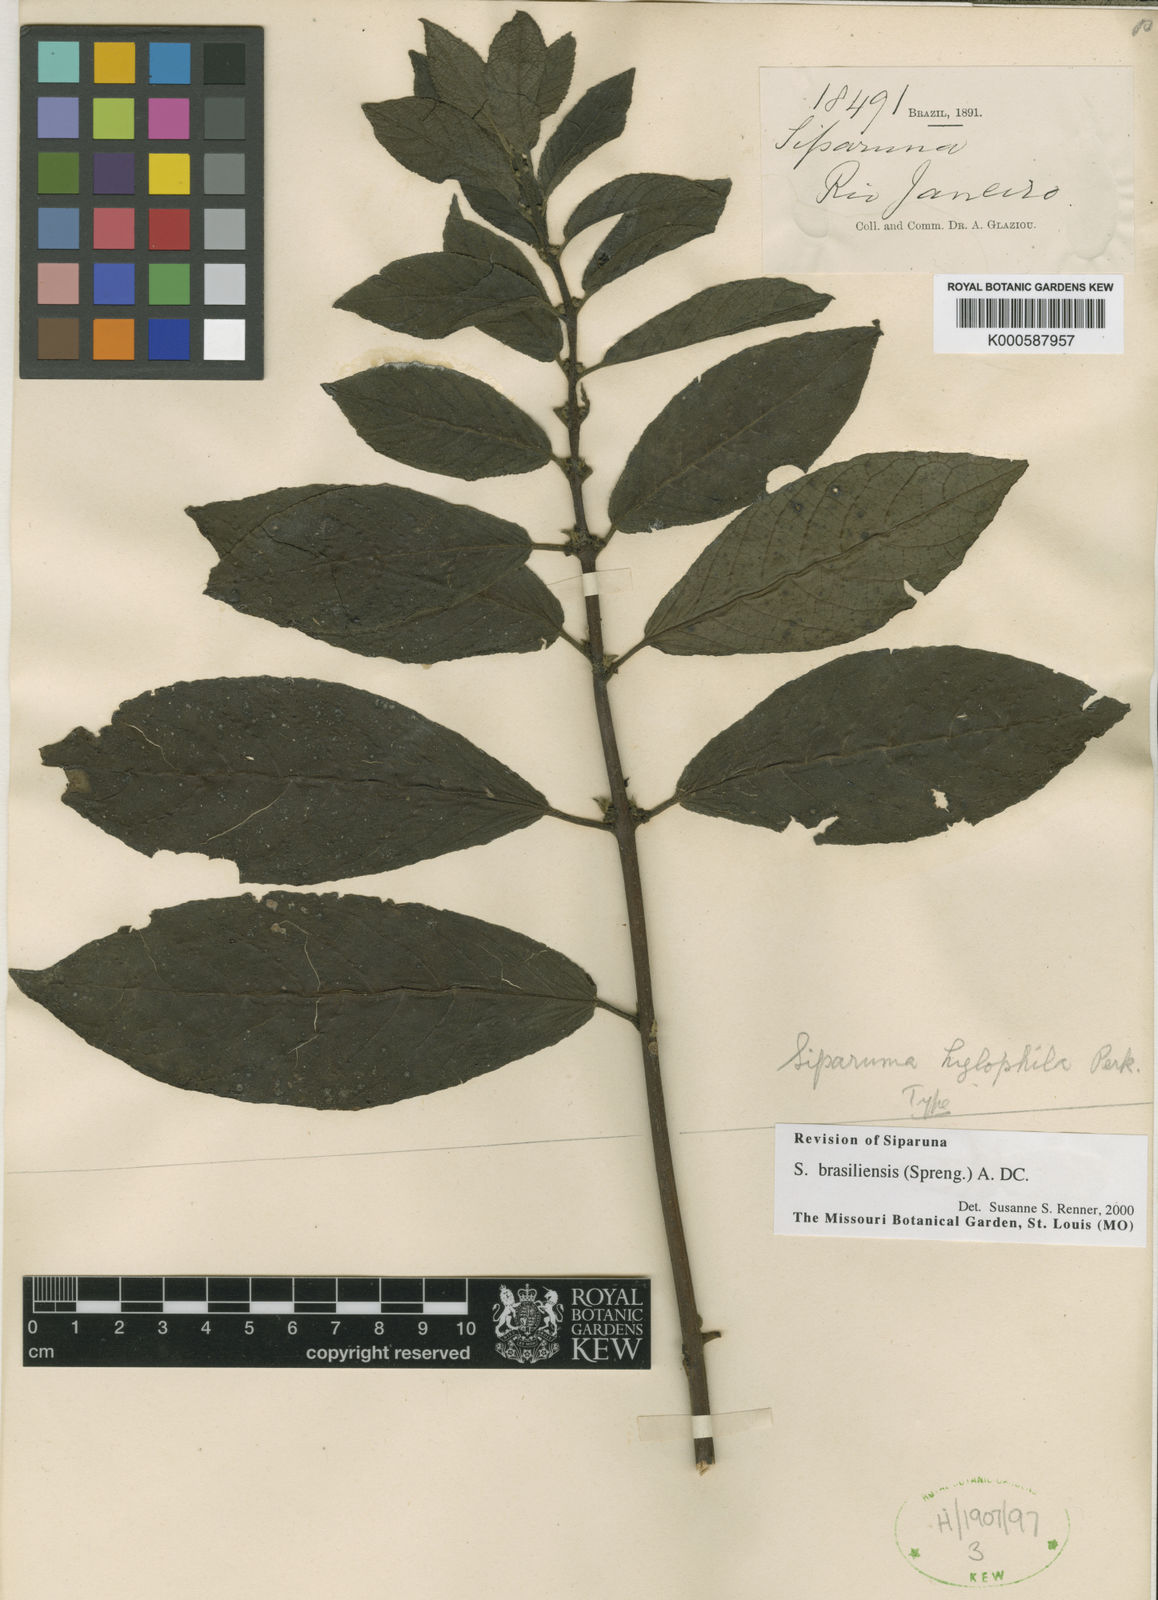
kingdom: Plantae
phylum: Tracheophyta
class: Magnoliopsida
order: Laurales
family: Siparunaceae
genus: Siparuna
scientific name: Siparuna brasiliensis
